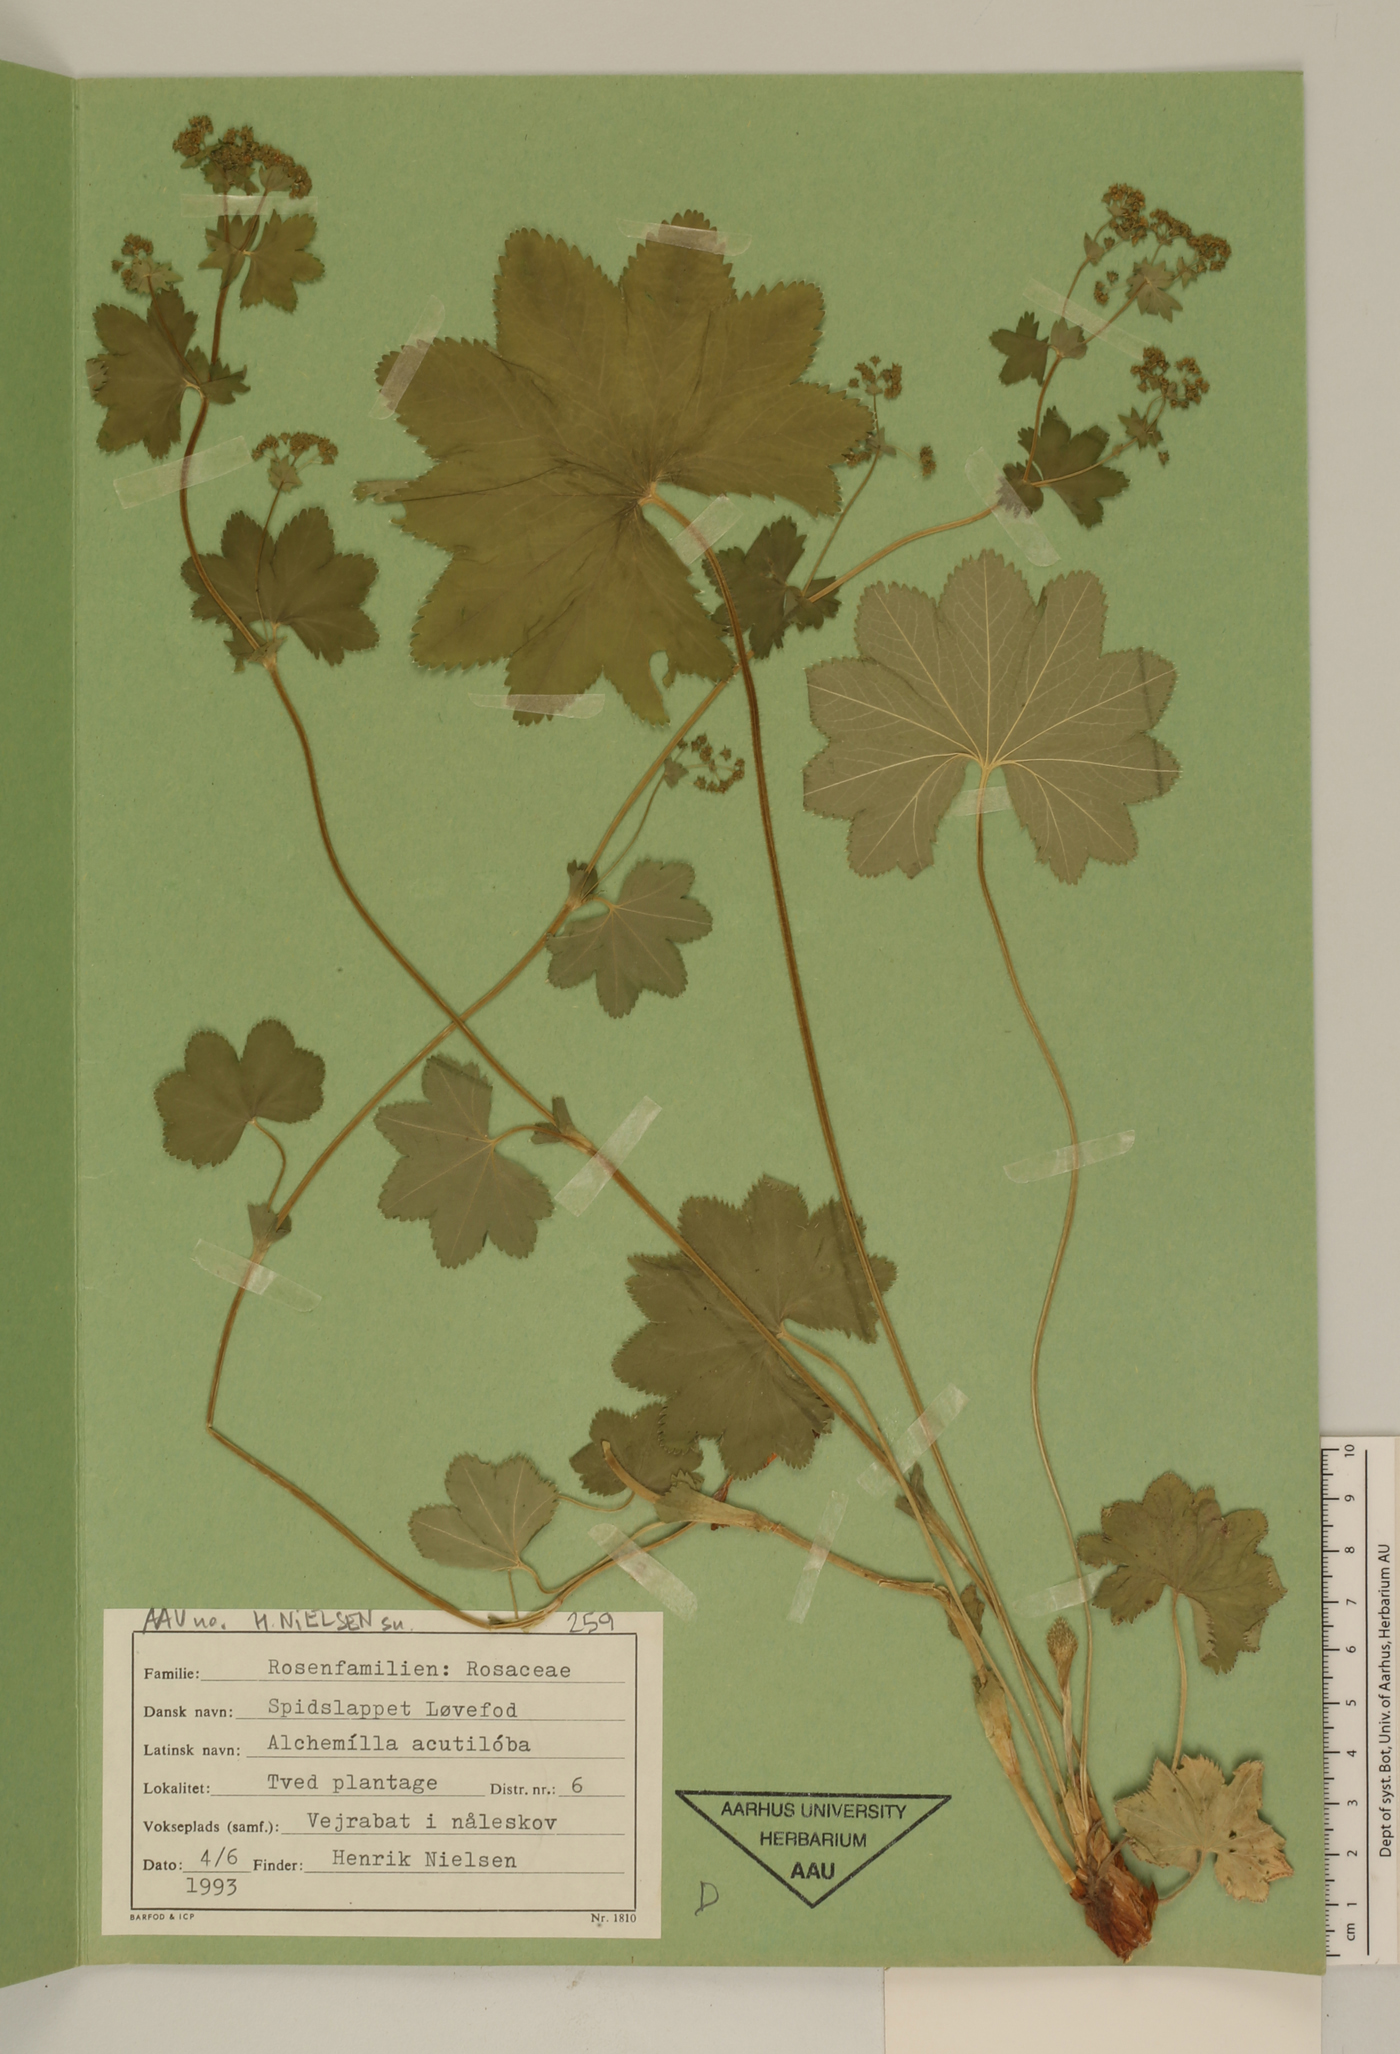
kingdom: Plantae
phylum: Tracheophyta
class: Magnoliopsida
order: Rosales
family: Rosaceae
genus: Alchemilla
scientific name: Alchemilla vulgaris
